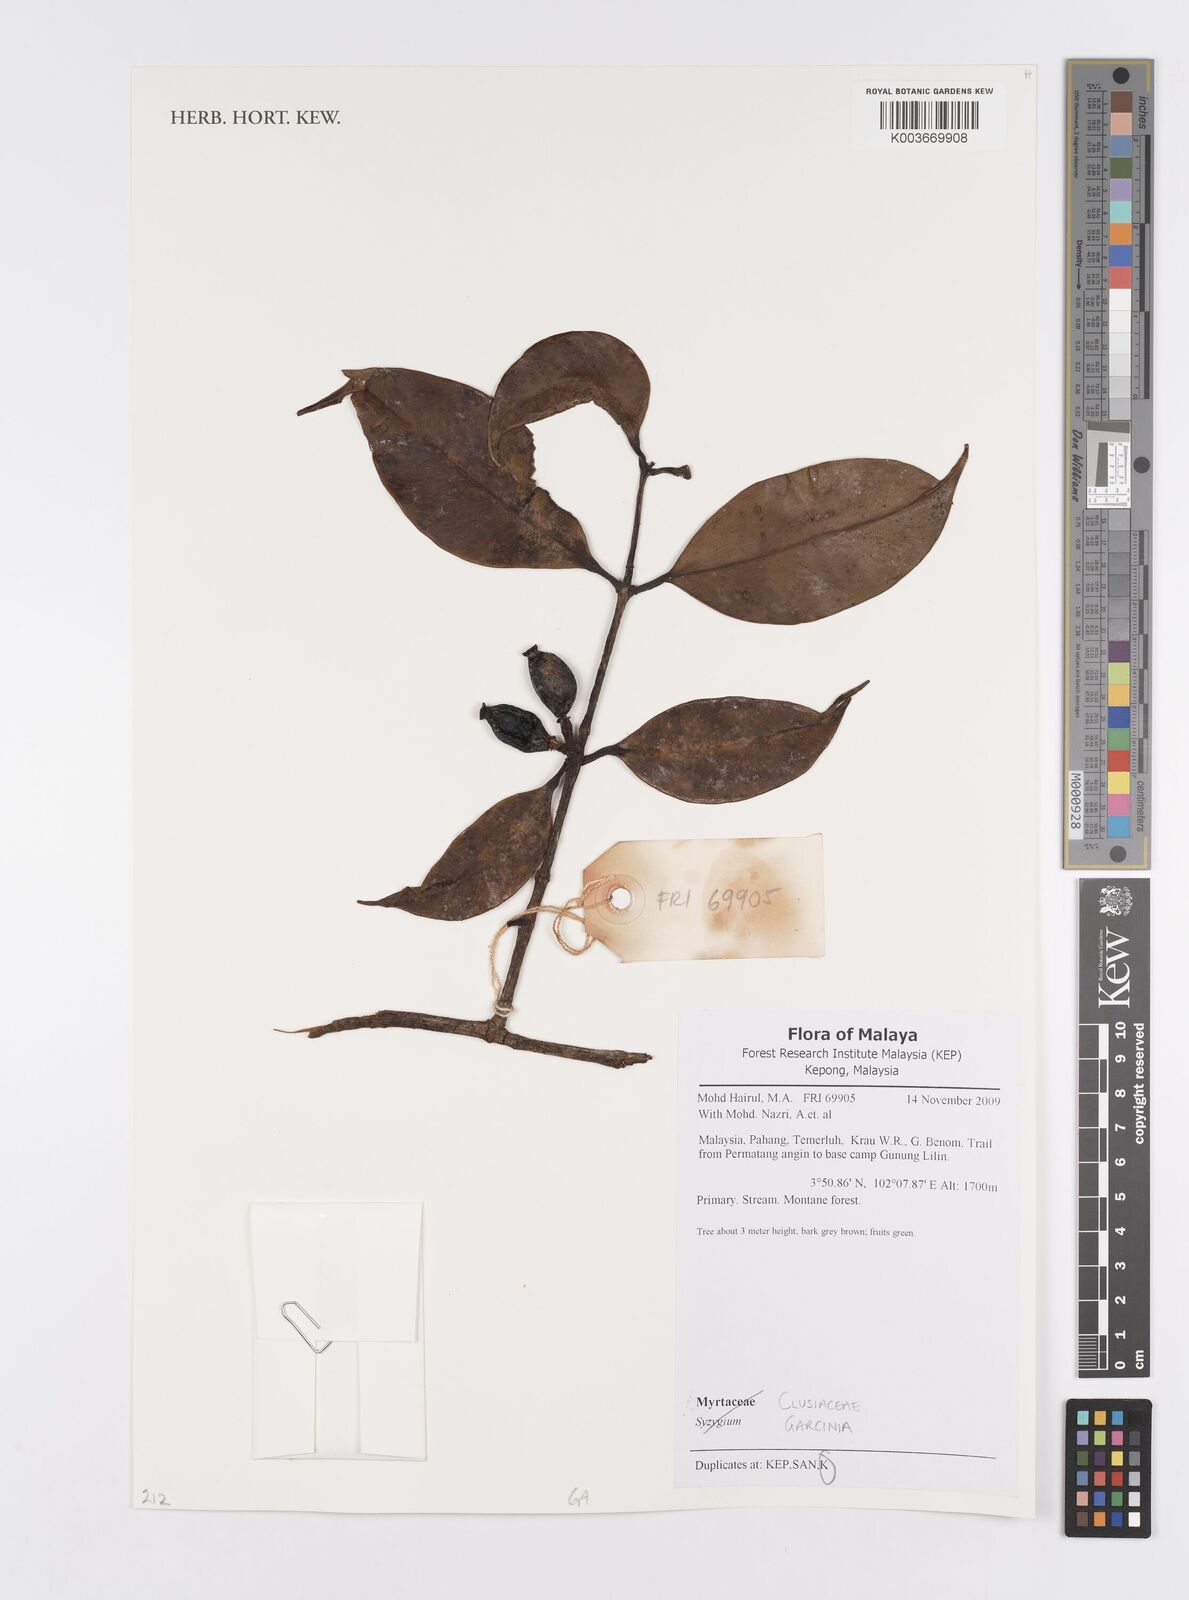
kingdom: Plantae
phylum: Tracheophyta
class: Magnoliopsida
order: Malpighiales
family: Clusiaceae
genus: Garcinia
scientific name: Garcinia
